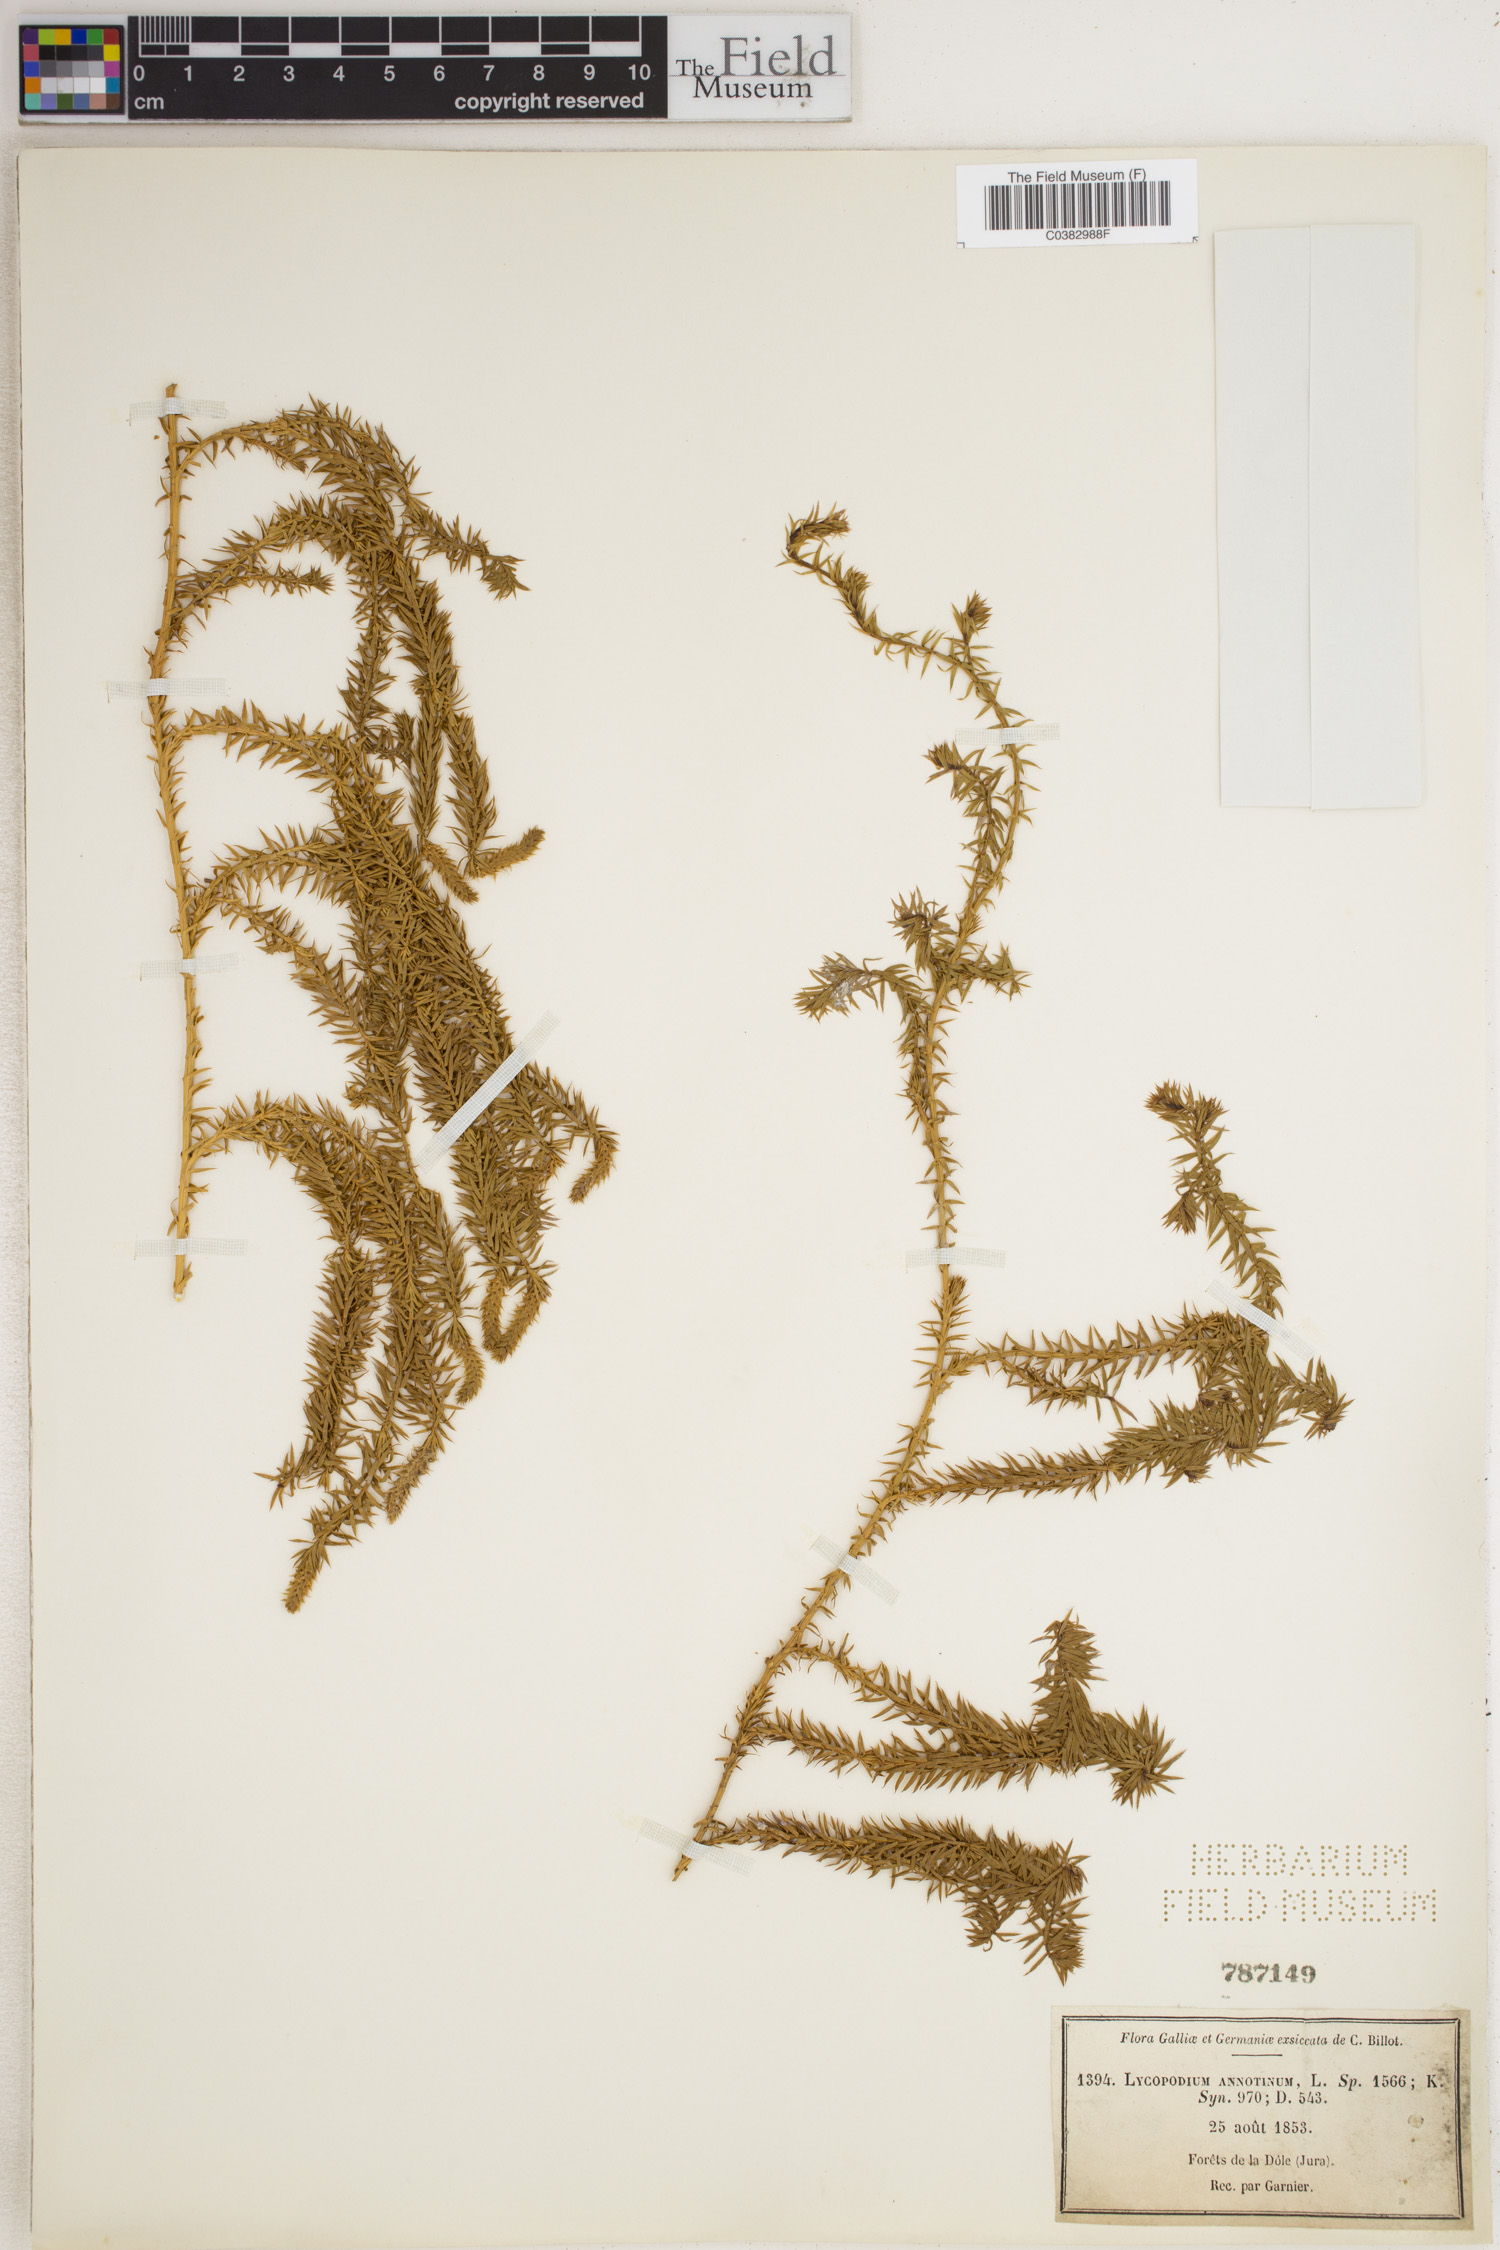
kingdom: Plantae
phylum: Tracheophyta
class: Lycopodiopsida
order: Lycopodiales
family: Lycopodiaceae
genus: Spinulum
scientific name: Spinulum annotinum
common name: Interrupted club-moss
